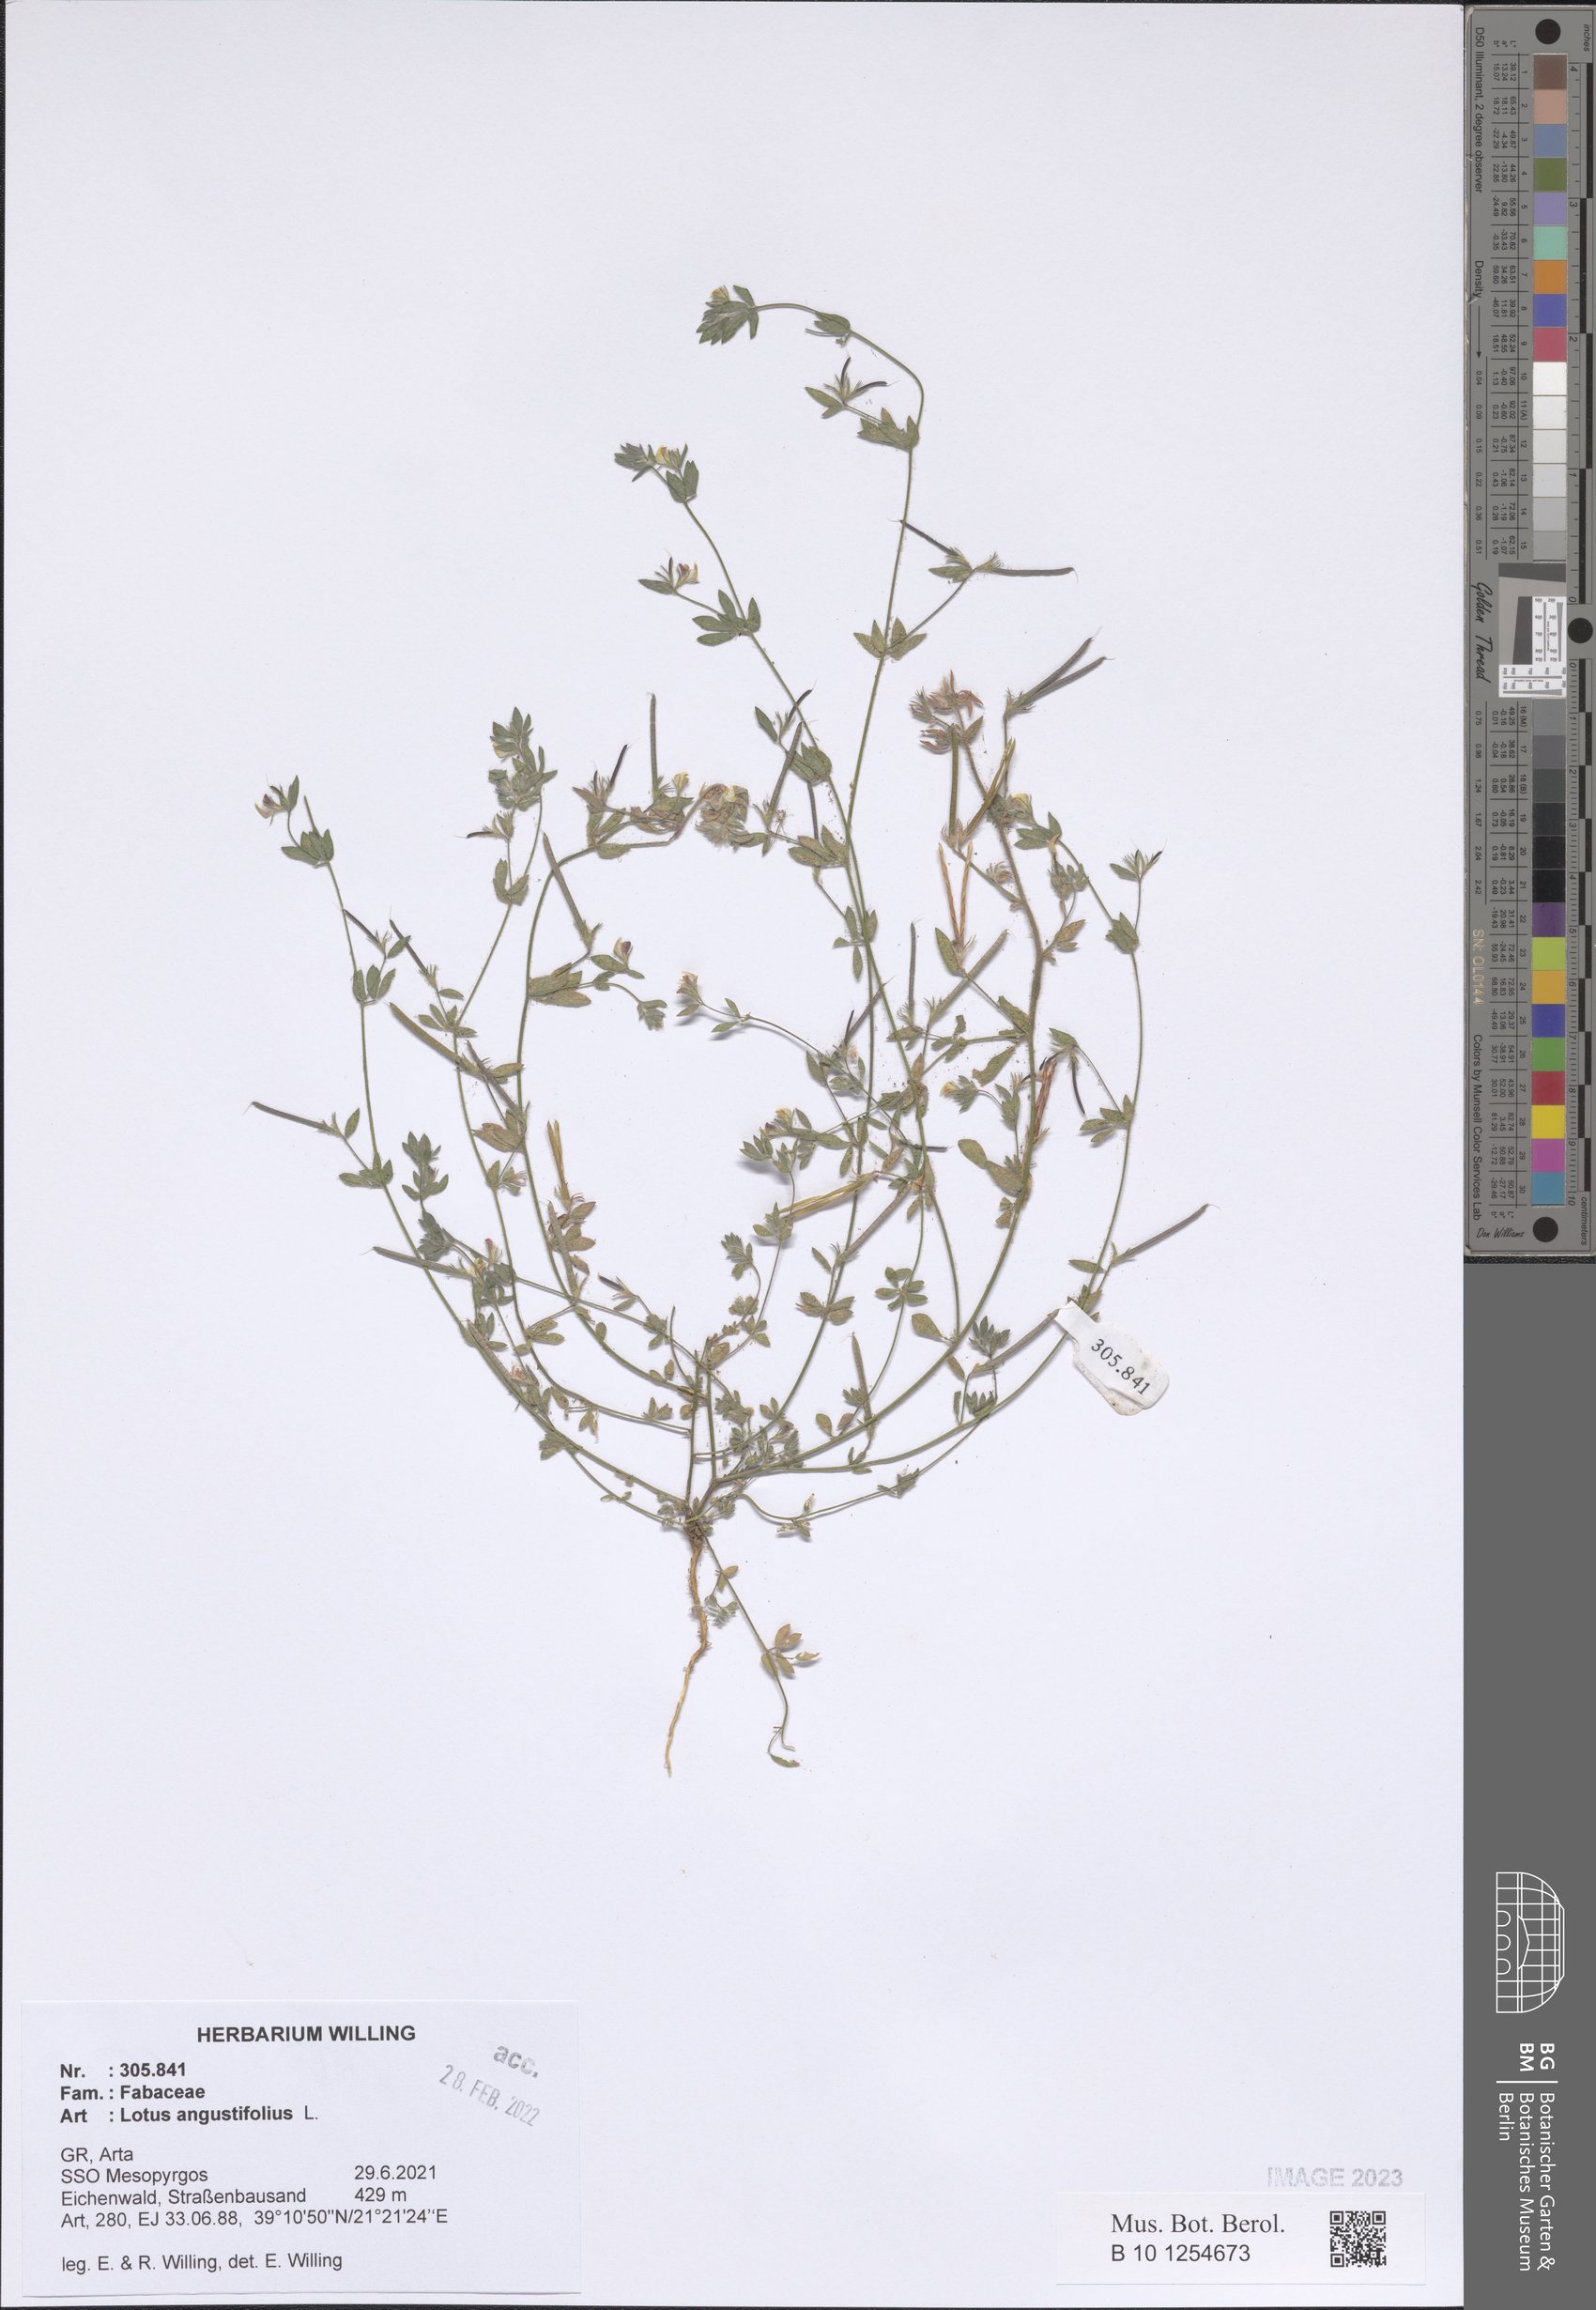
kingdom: Plantae
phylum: Tracheophyta
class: Magnoliopsida
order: Fabales
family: Fabaceae
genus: Lotus
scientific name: Lotus angustissimus
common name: Slender bird's-foot trefoil
